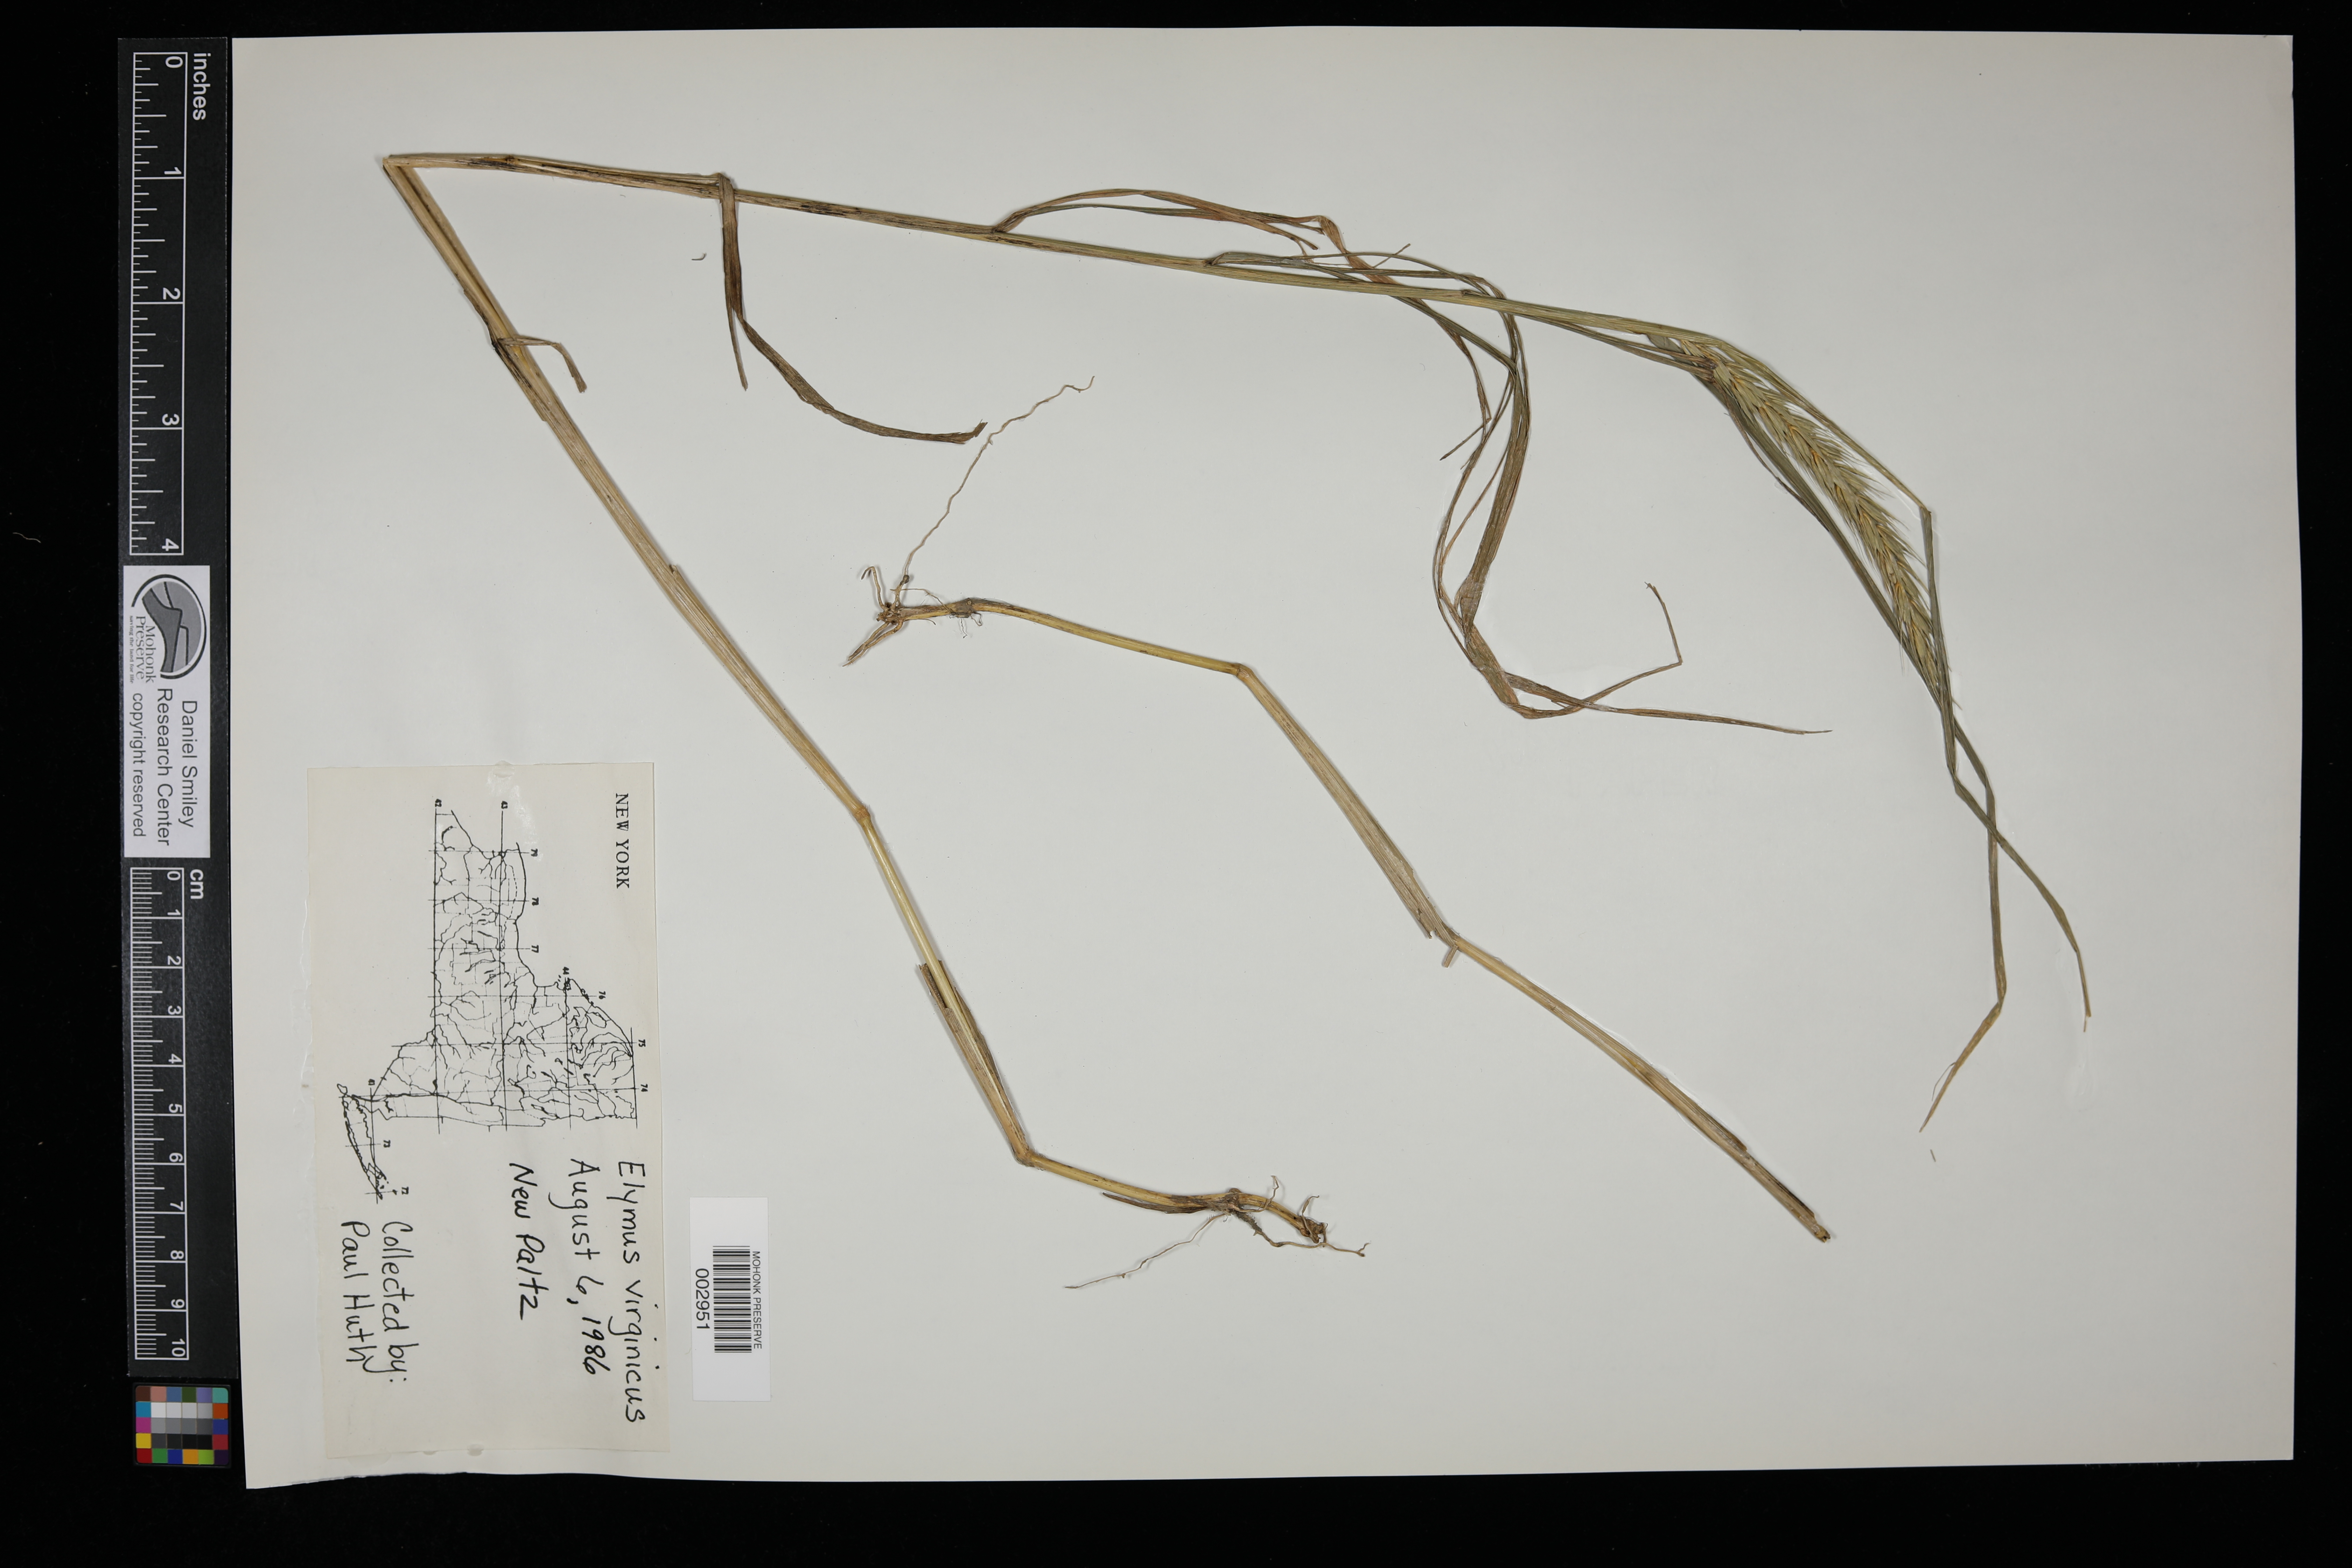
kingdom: Plantae
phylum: Tracheophyta
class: Liliopsida
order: Poales
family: Poaceae
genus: Elymus
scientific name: Elymus virginicus
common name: Common eastern wildrye
